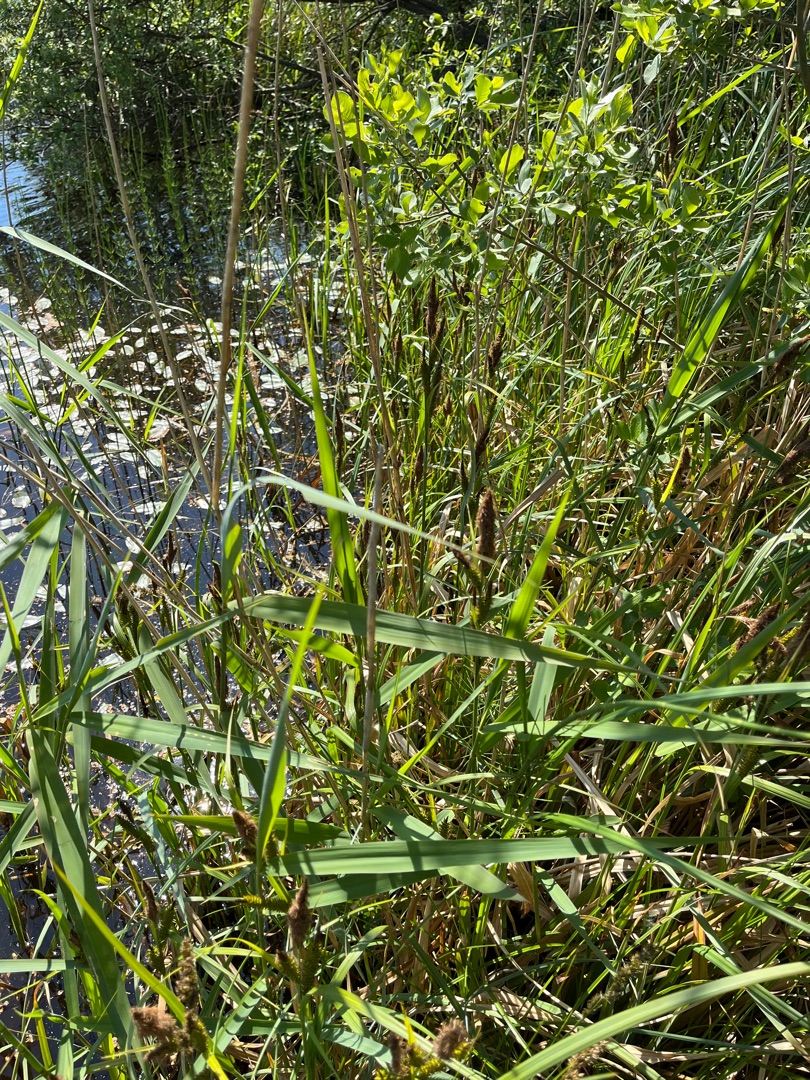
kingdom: Plantae
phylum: Tracheophyta
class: Liliopsida
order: Poales
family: Cyperaceae
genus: Carex
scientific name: Carex riparia
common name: Tykakset star
